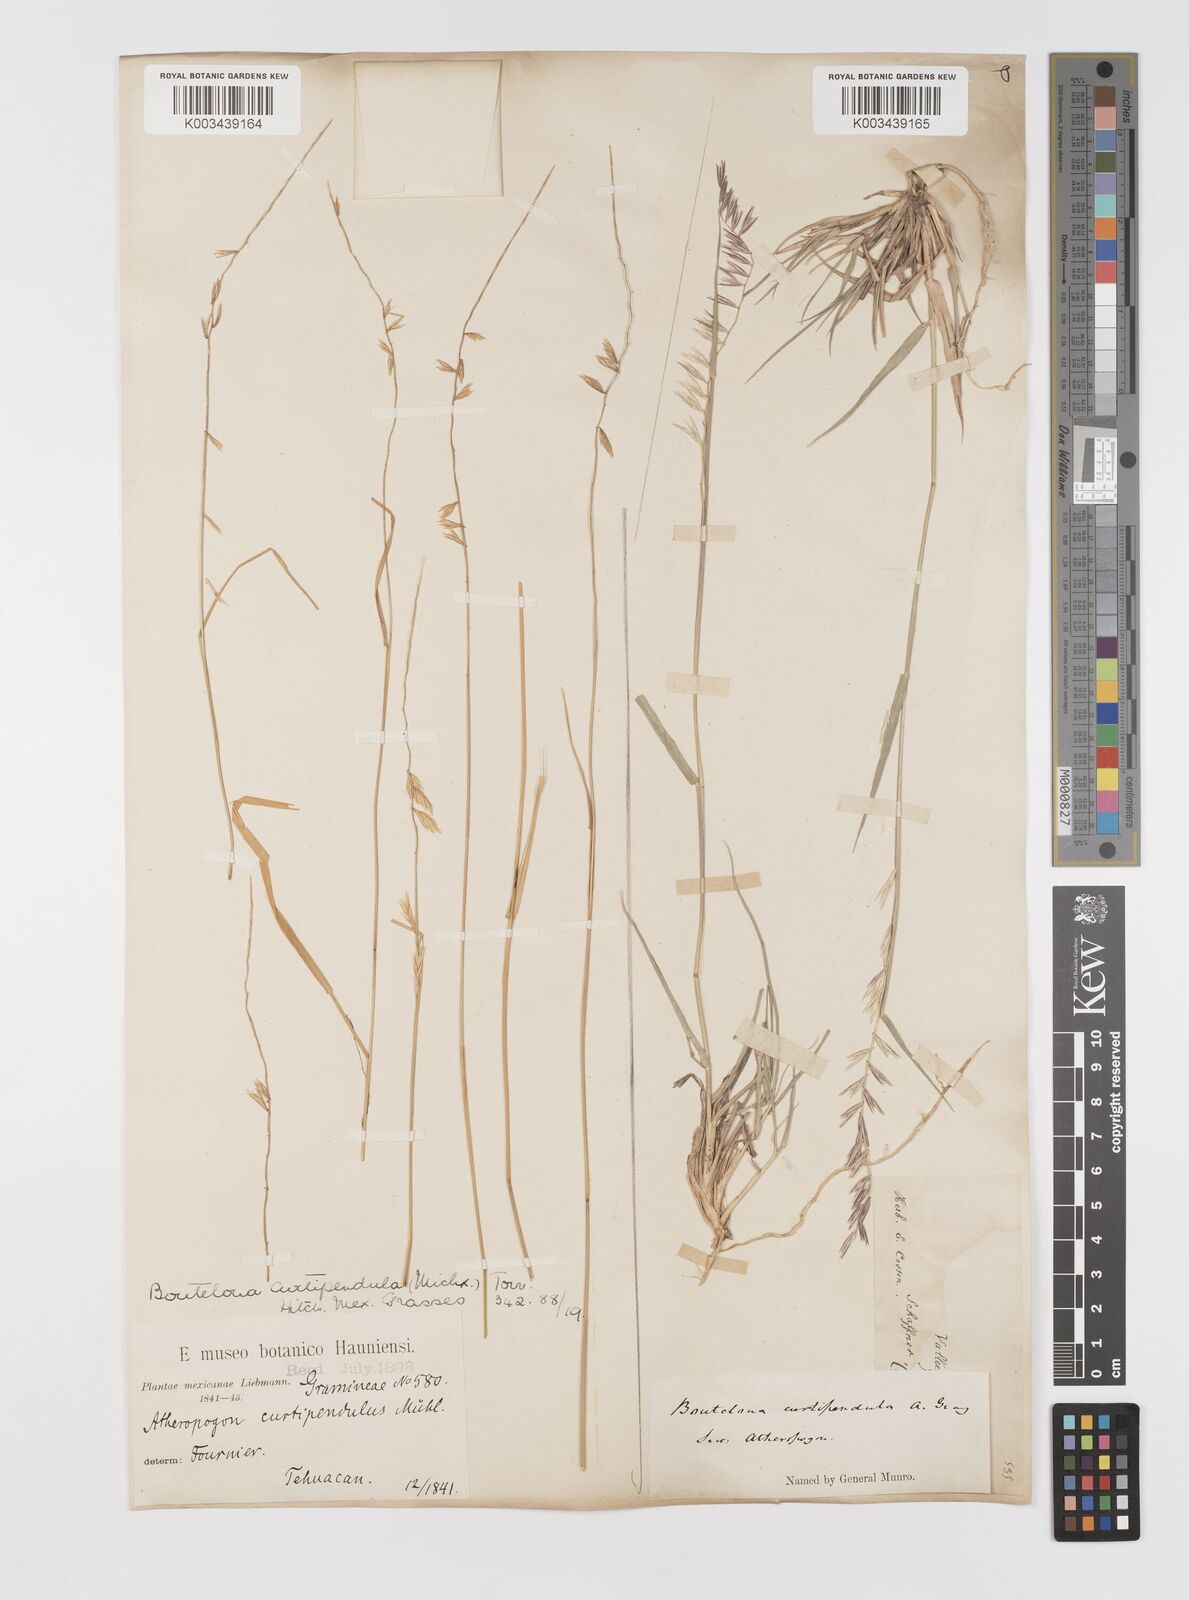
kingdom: Plantae
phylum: Tracheophyta
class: Liliopsida
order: Poales
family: Poaceae
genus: Bouteloua
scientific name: Bouteloua curtipendula
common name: Side-oats grama
